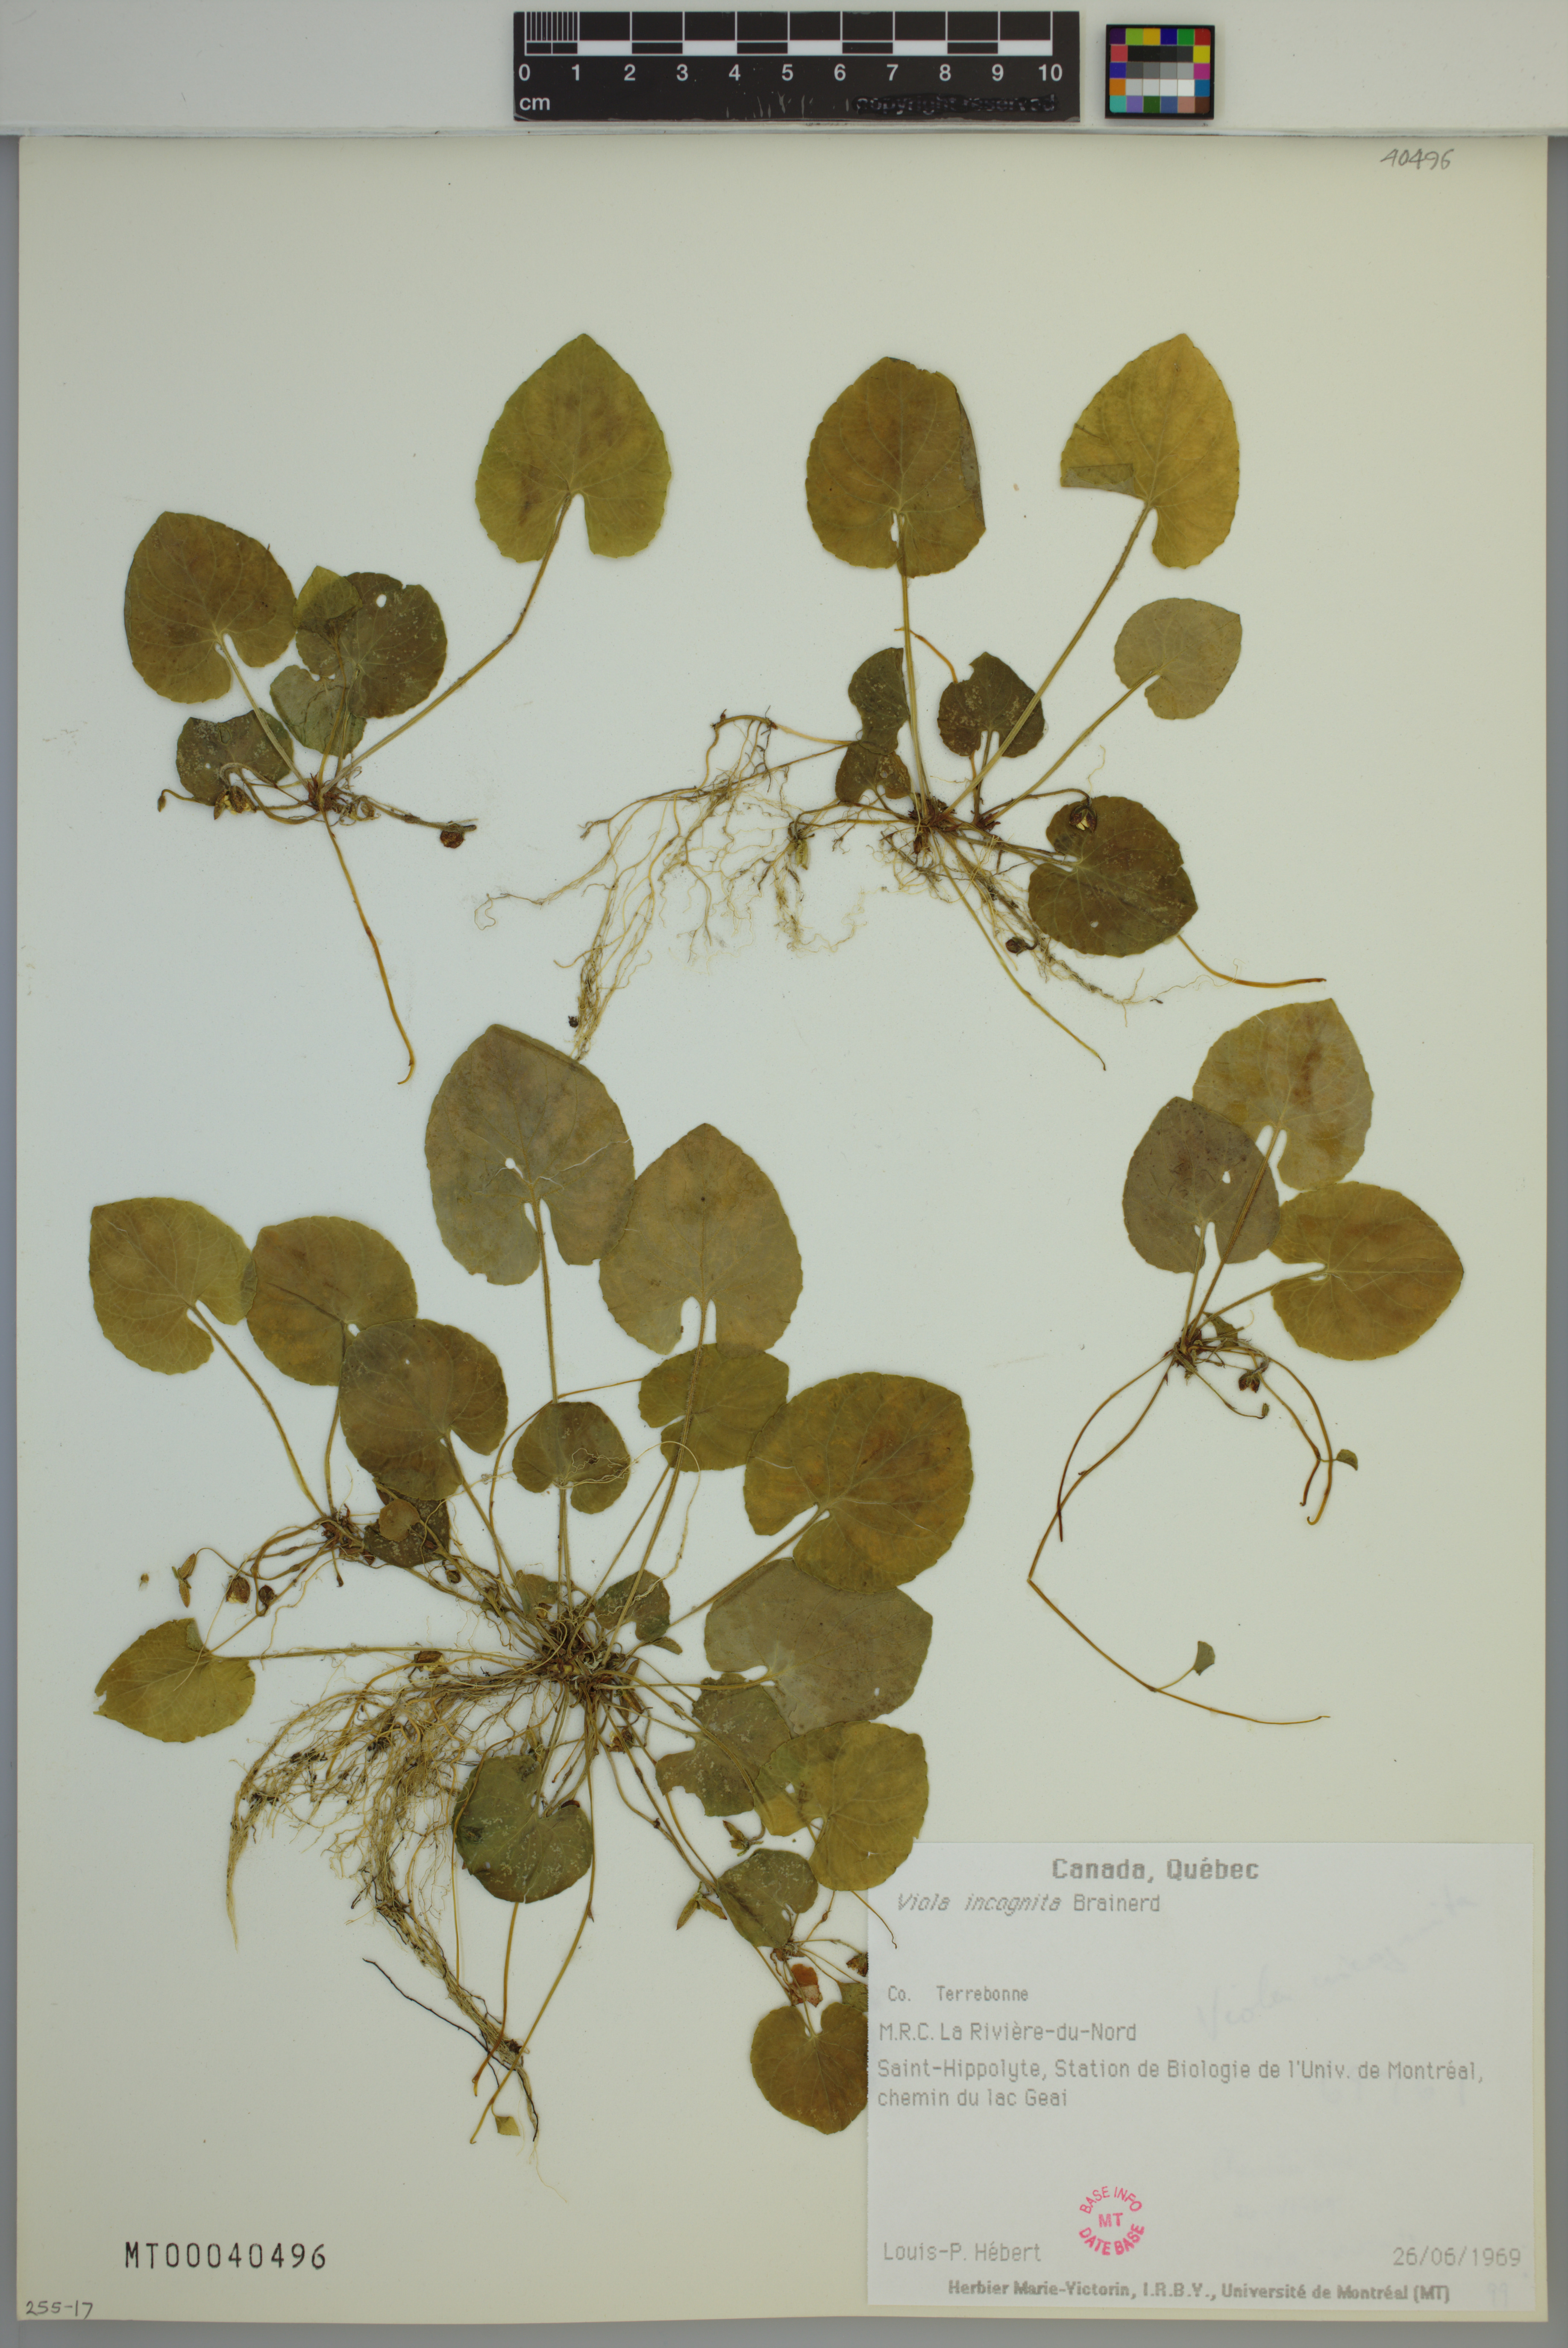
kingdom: Plantae
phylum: Tracheophyta
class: Magnoliopsida
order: Malpighiales
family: Violaceae
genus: Viola
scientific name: Viola blanda
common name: Sweet white violet
